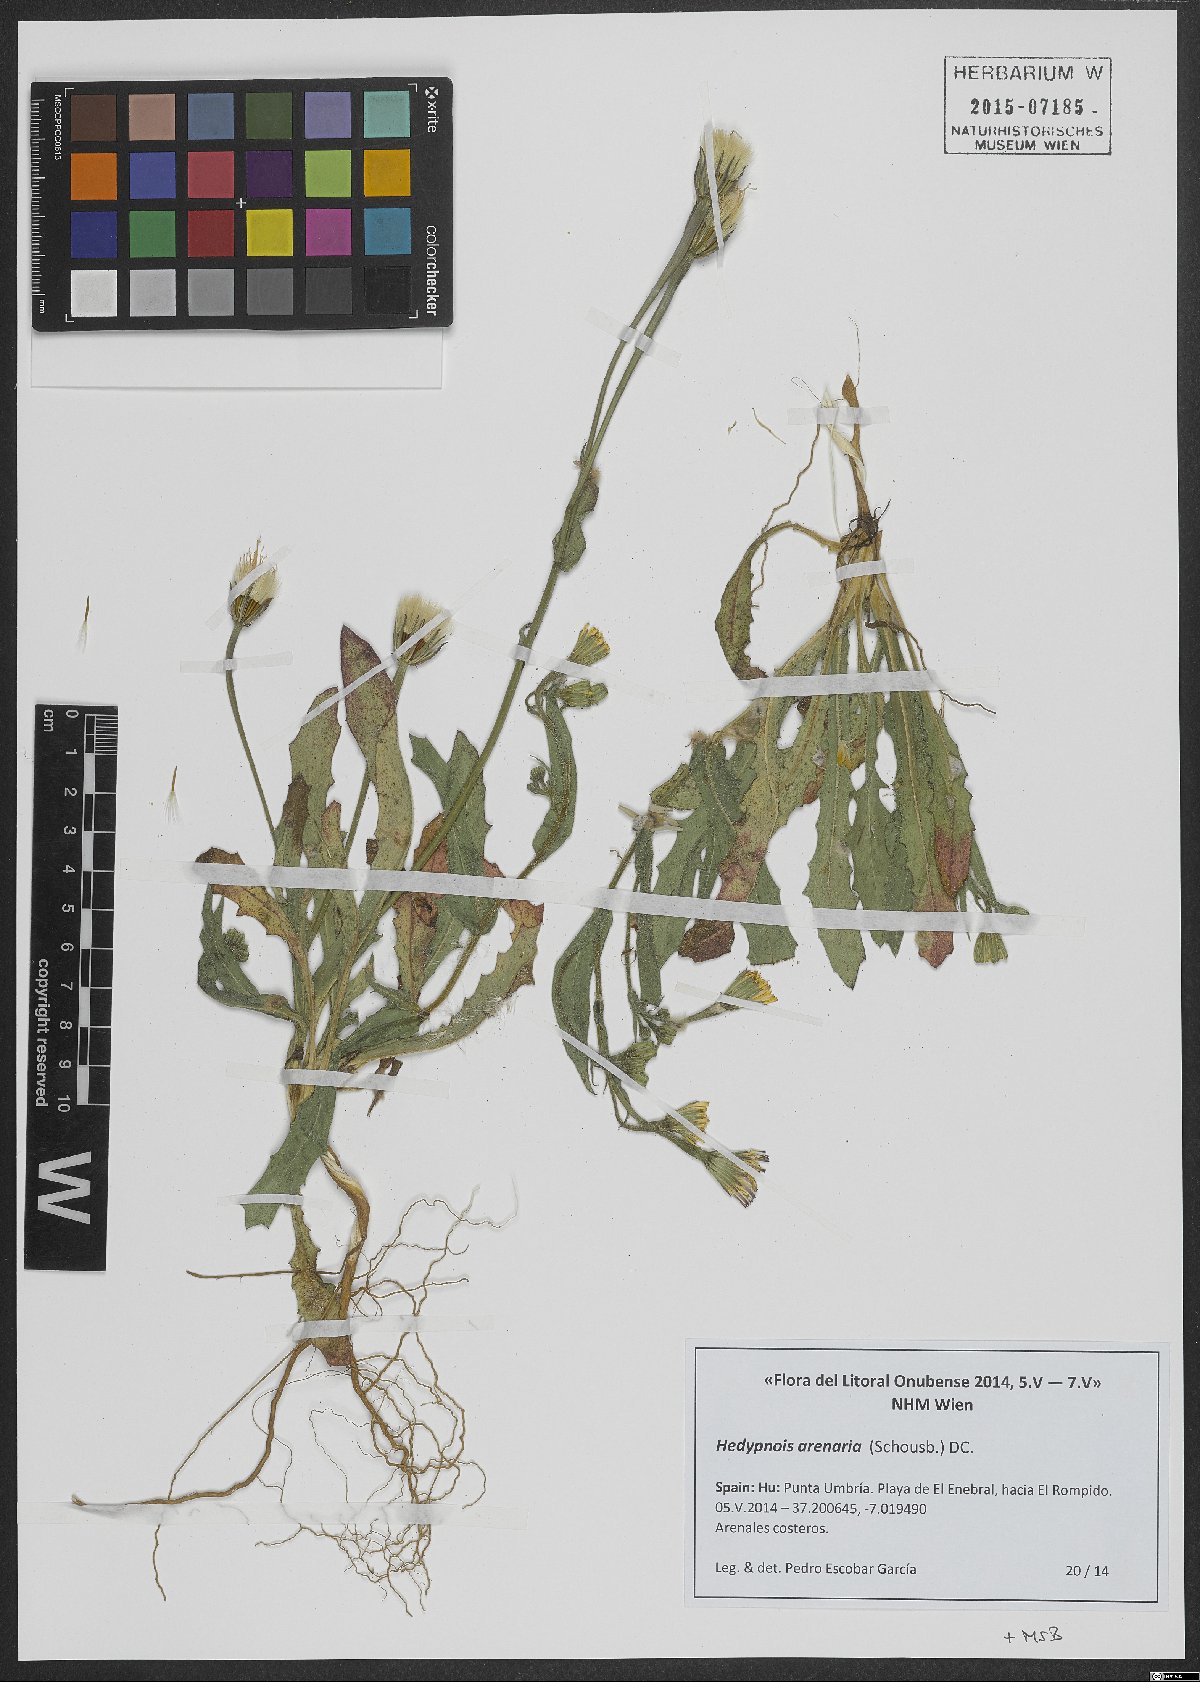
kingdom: Plantae
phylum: Tracheophyta
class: Magnoliopsida
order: Asterales
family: Asteraceae
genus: Hedypnois
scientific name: Hedypnois arenaria
